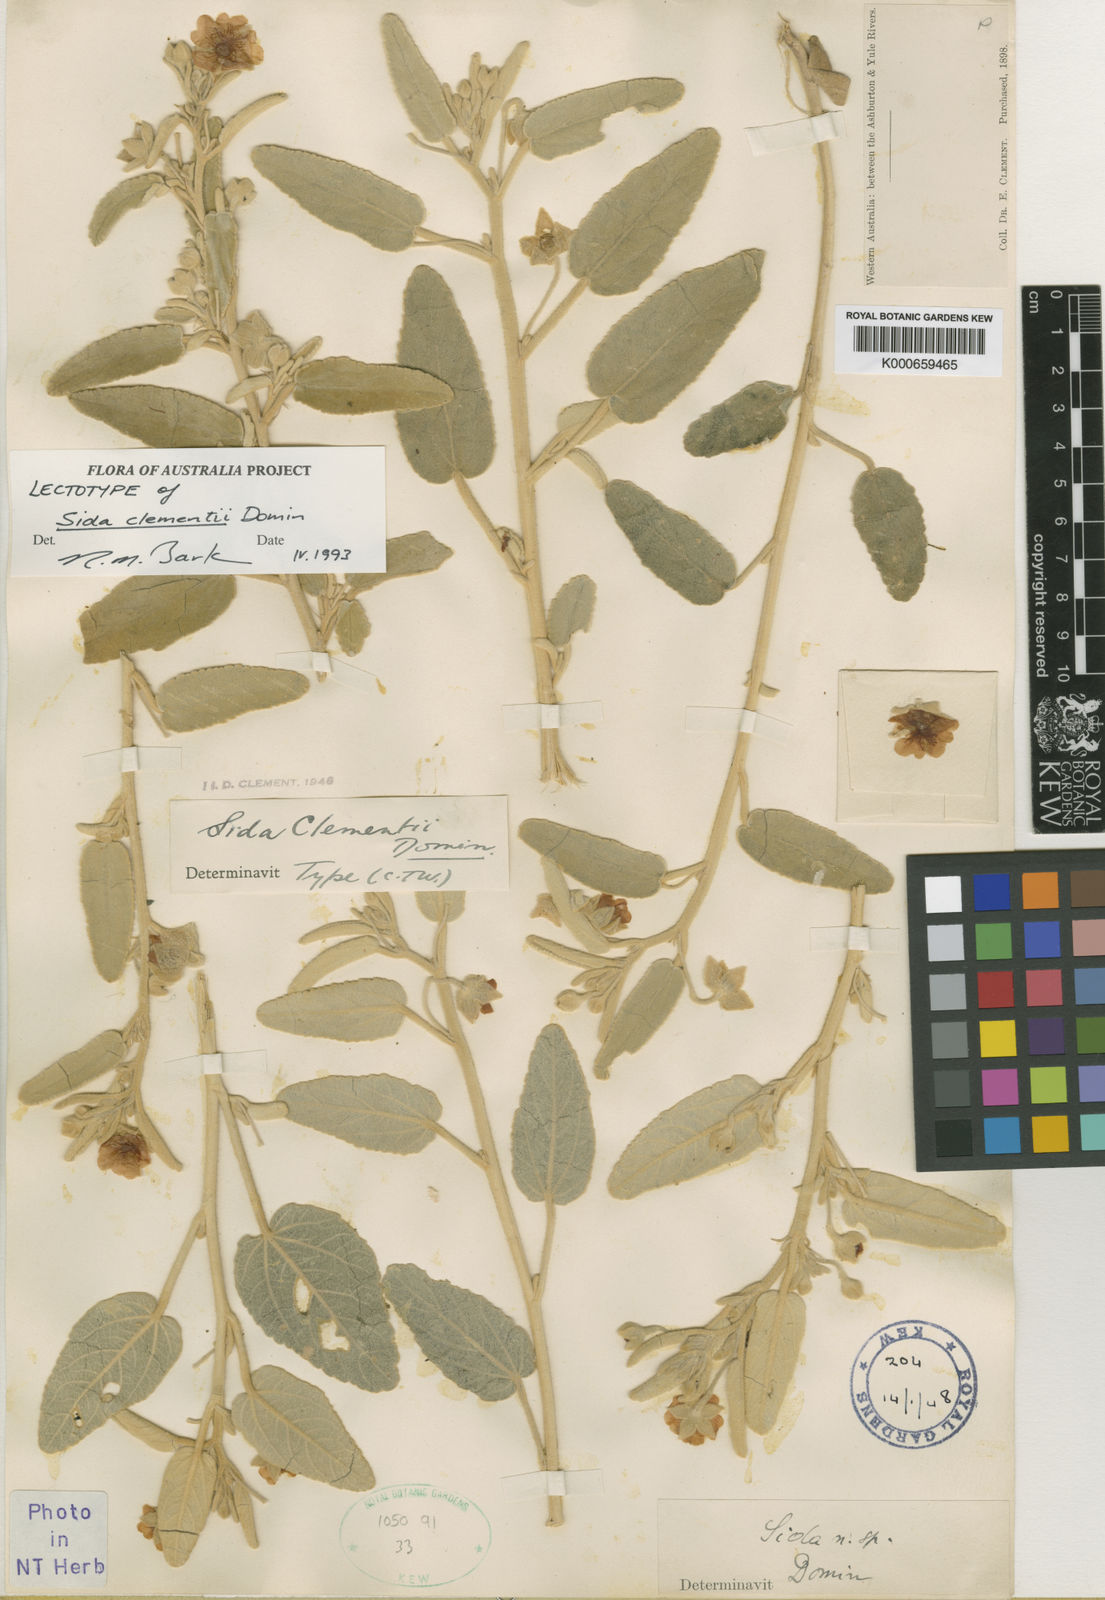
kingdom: Plantae
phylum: Tracheophyta
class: Magnoliopsida
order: Malvales
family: Malvaceae
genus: Sida
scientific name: Sida clementii
